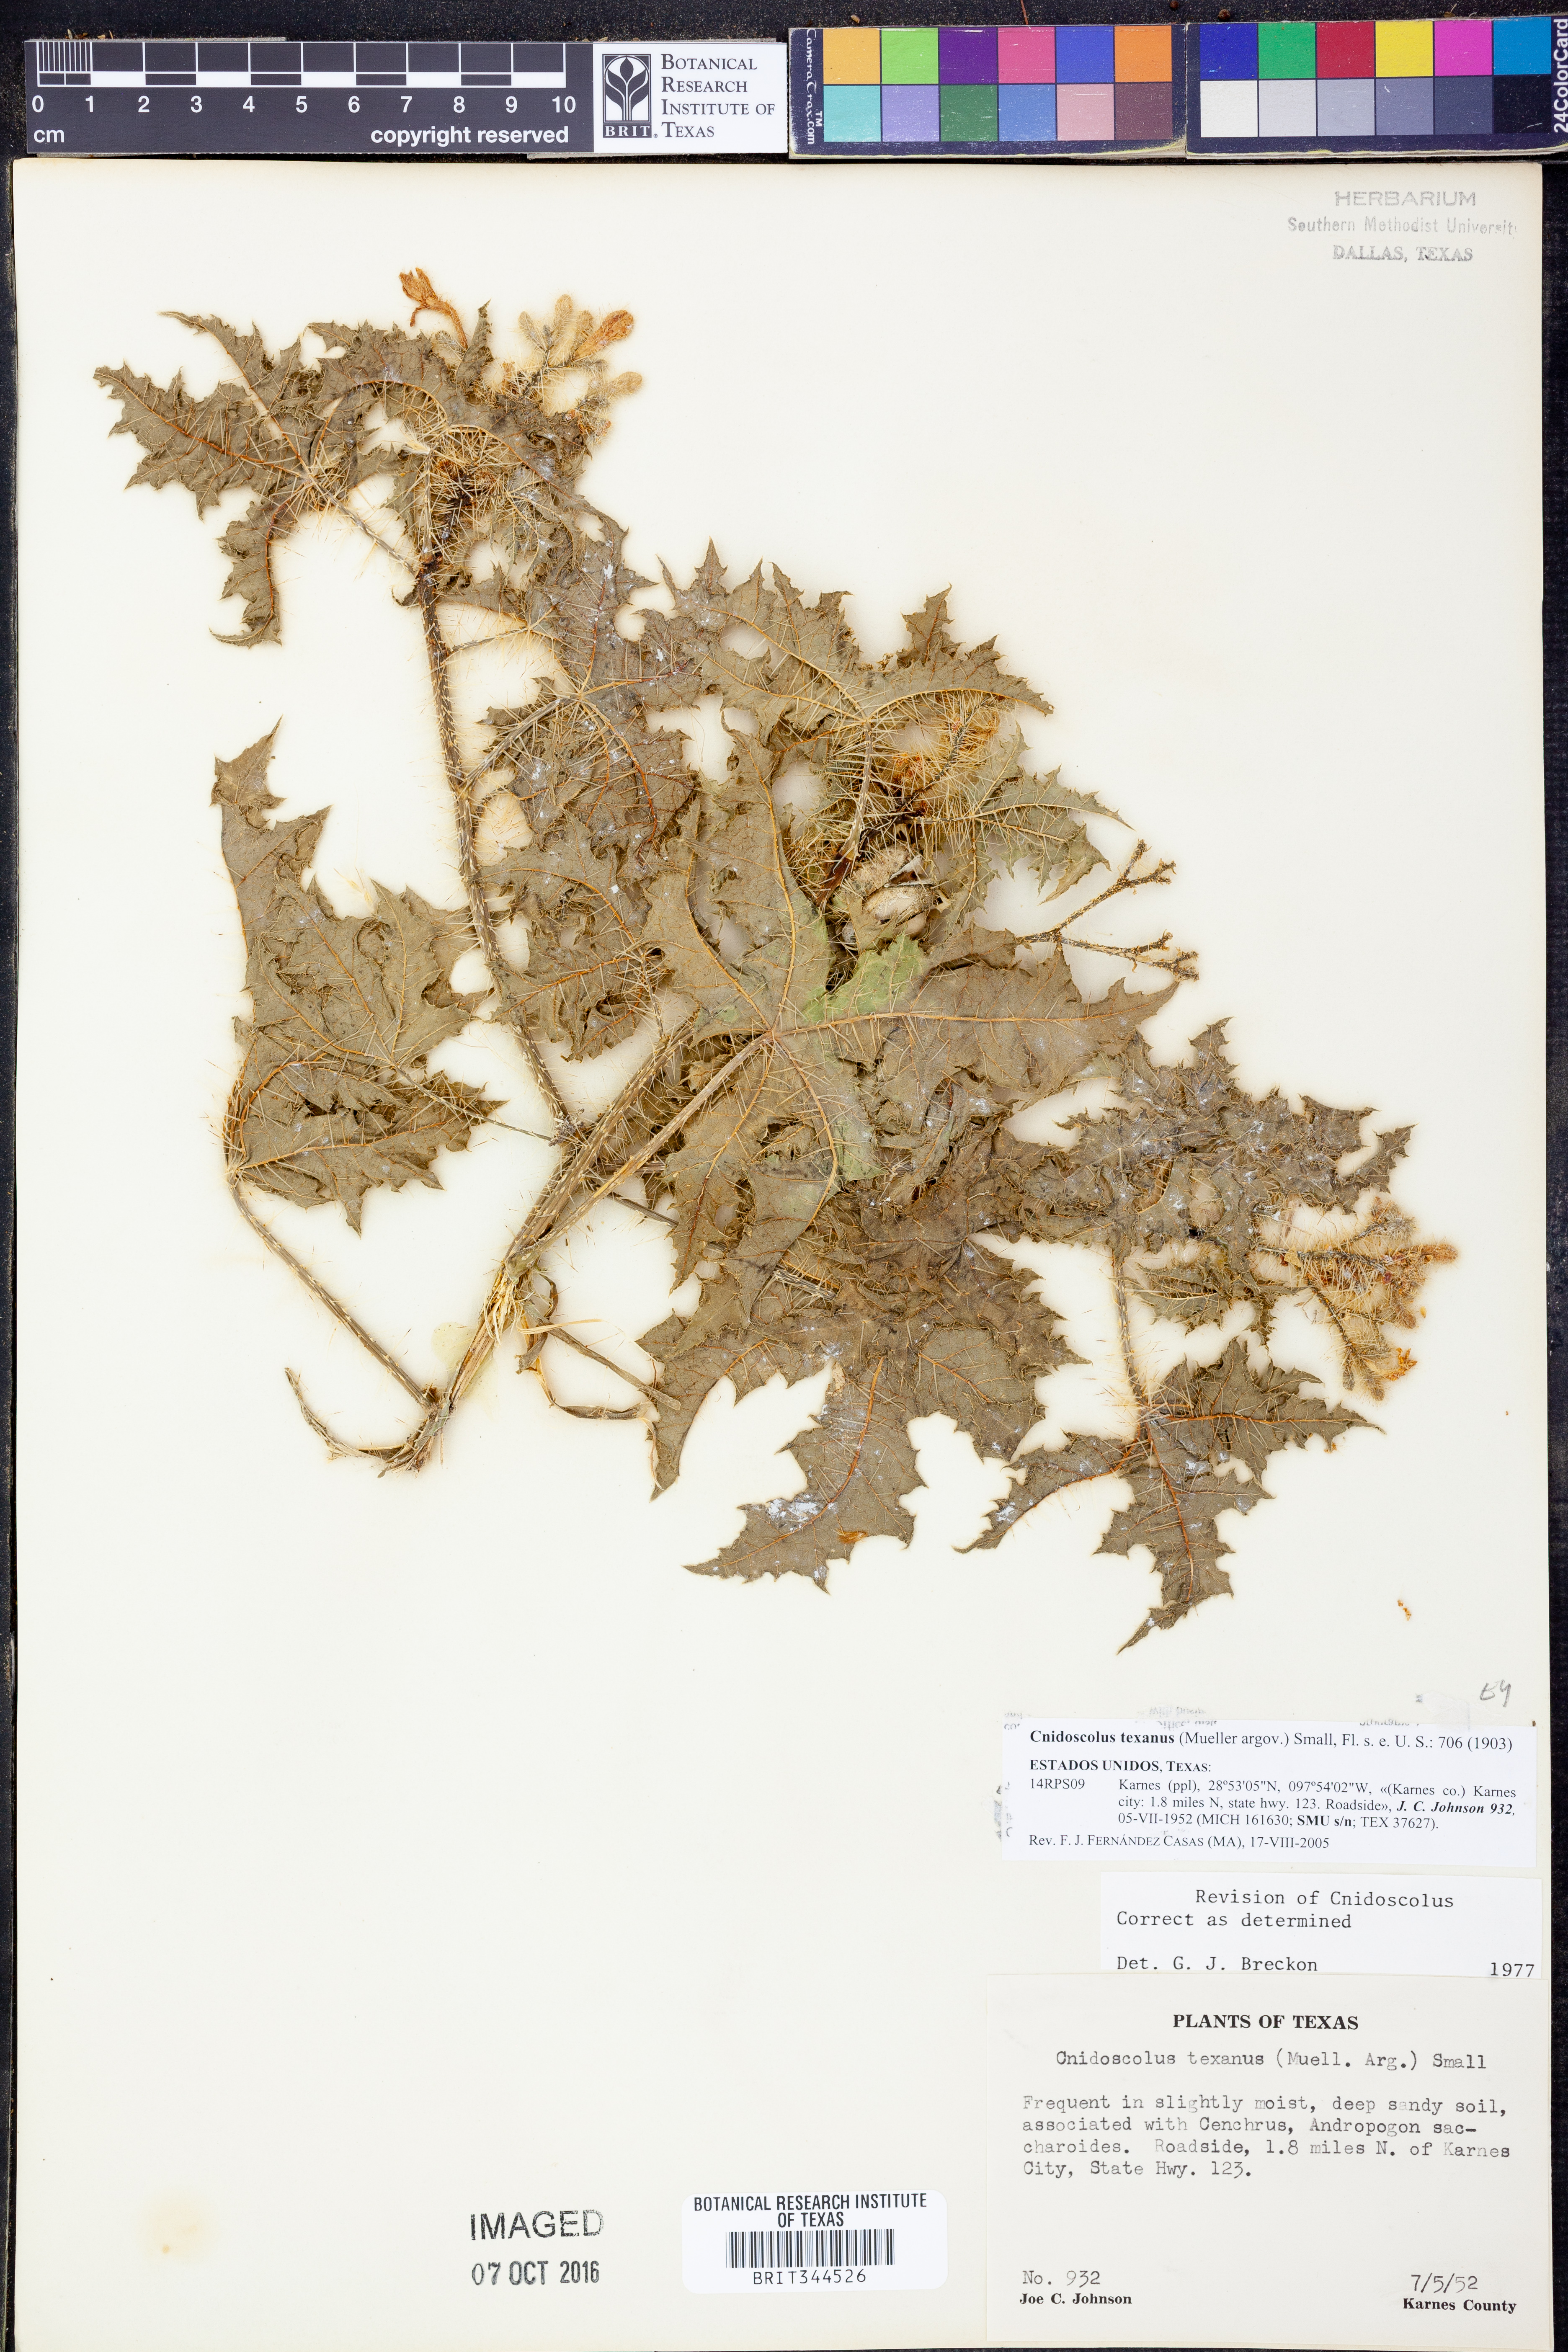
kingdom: Plantae
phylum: Tracheophyta
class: Magnoliopsida
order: Malpighiales
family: Euphorbiaceae
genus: Cnidoscolus
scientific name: Cnidoscolus texanus
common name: Texas bull-nettle
